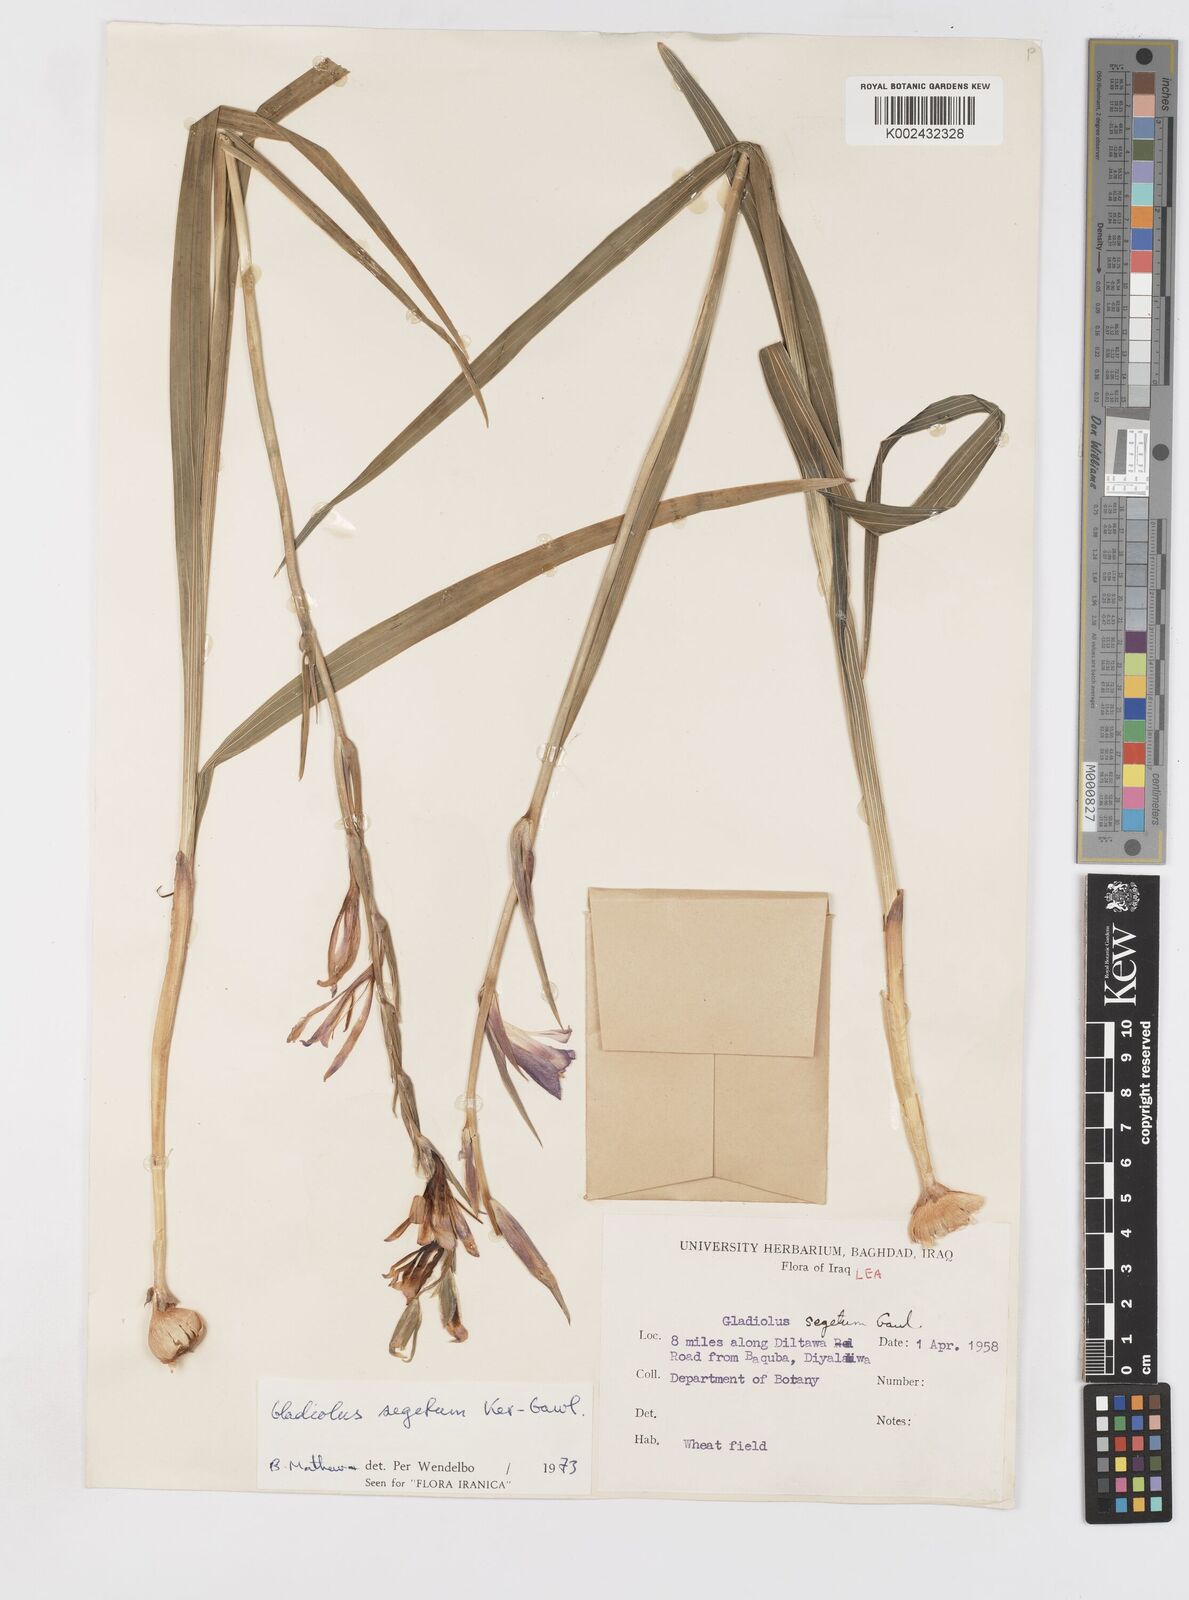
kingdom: Plantae
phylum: Tracheophyta
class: Liliopsida
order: Asparagales
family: Iridaceae
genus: Gladiolus
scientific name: Gladiolus italicus
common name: Field gladiolus
